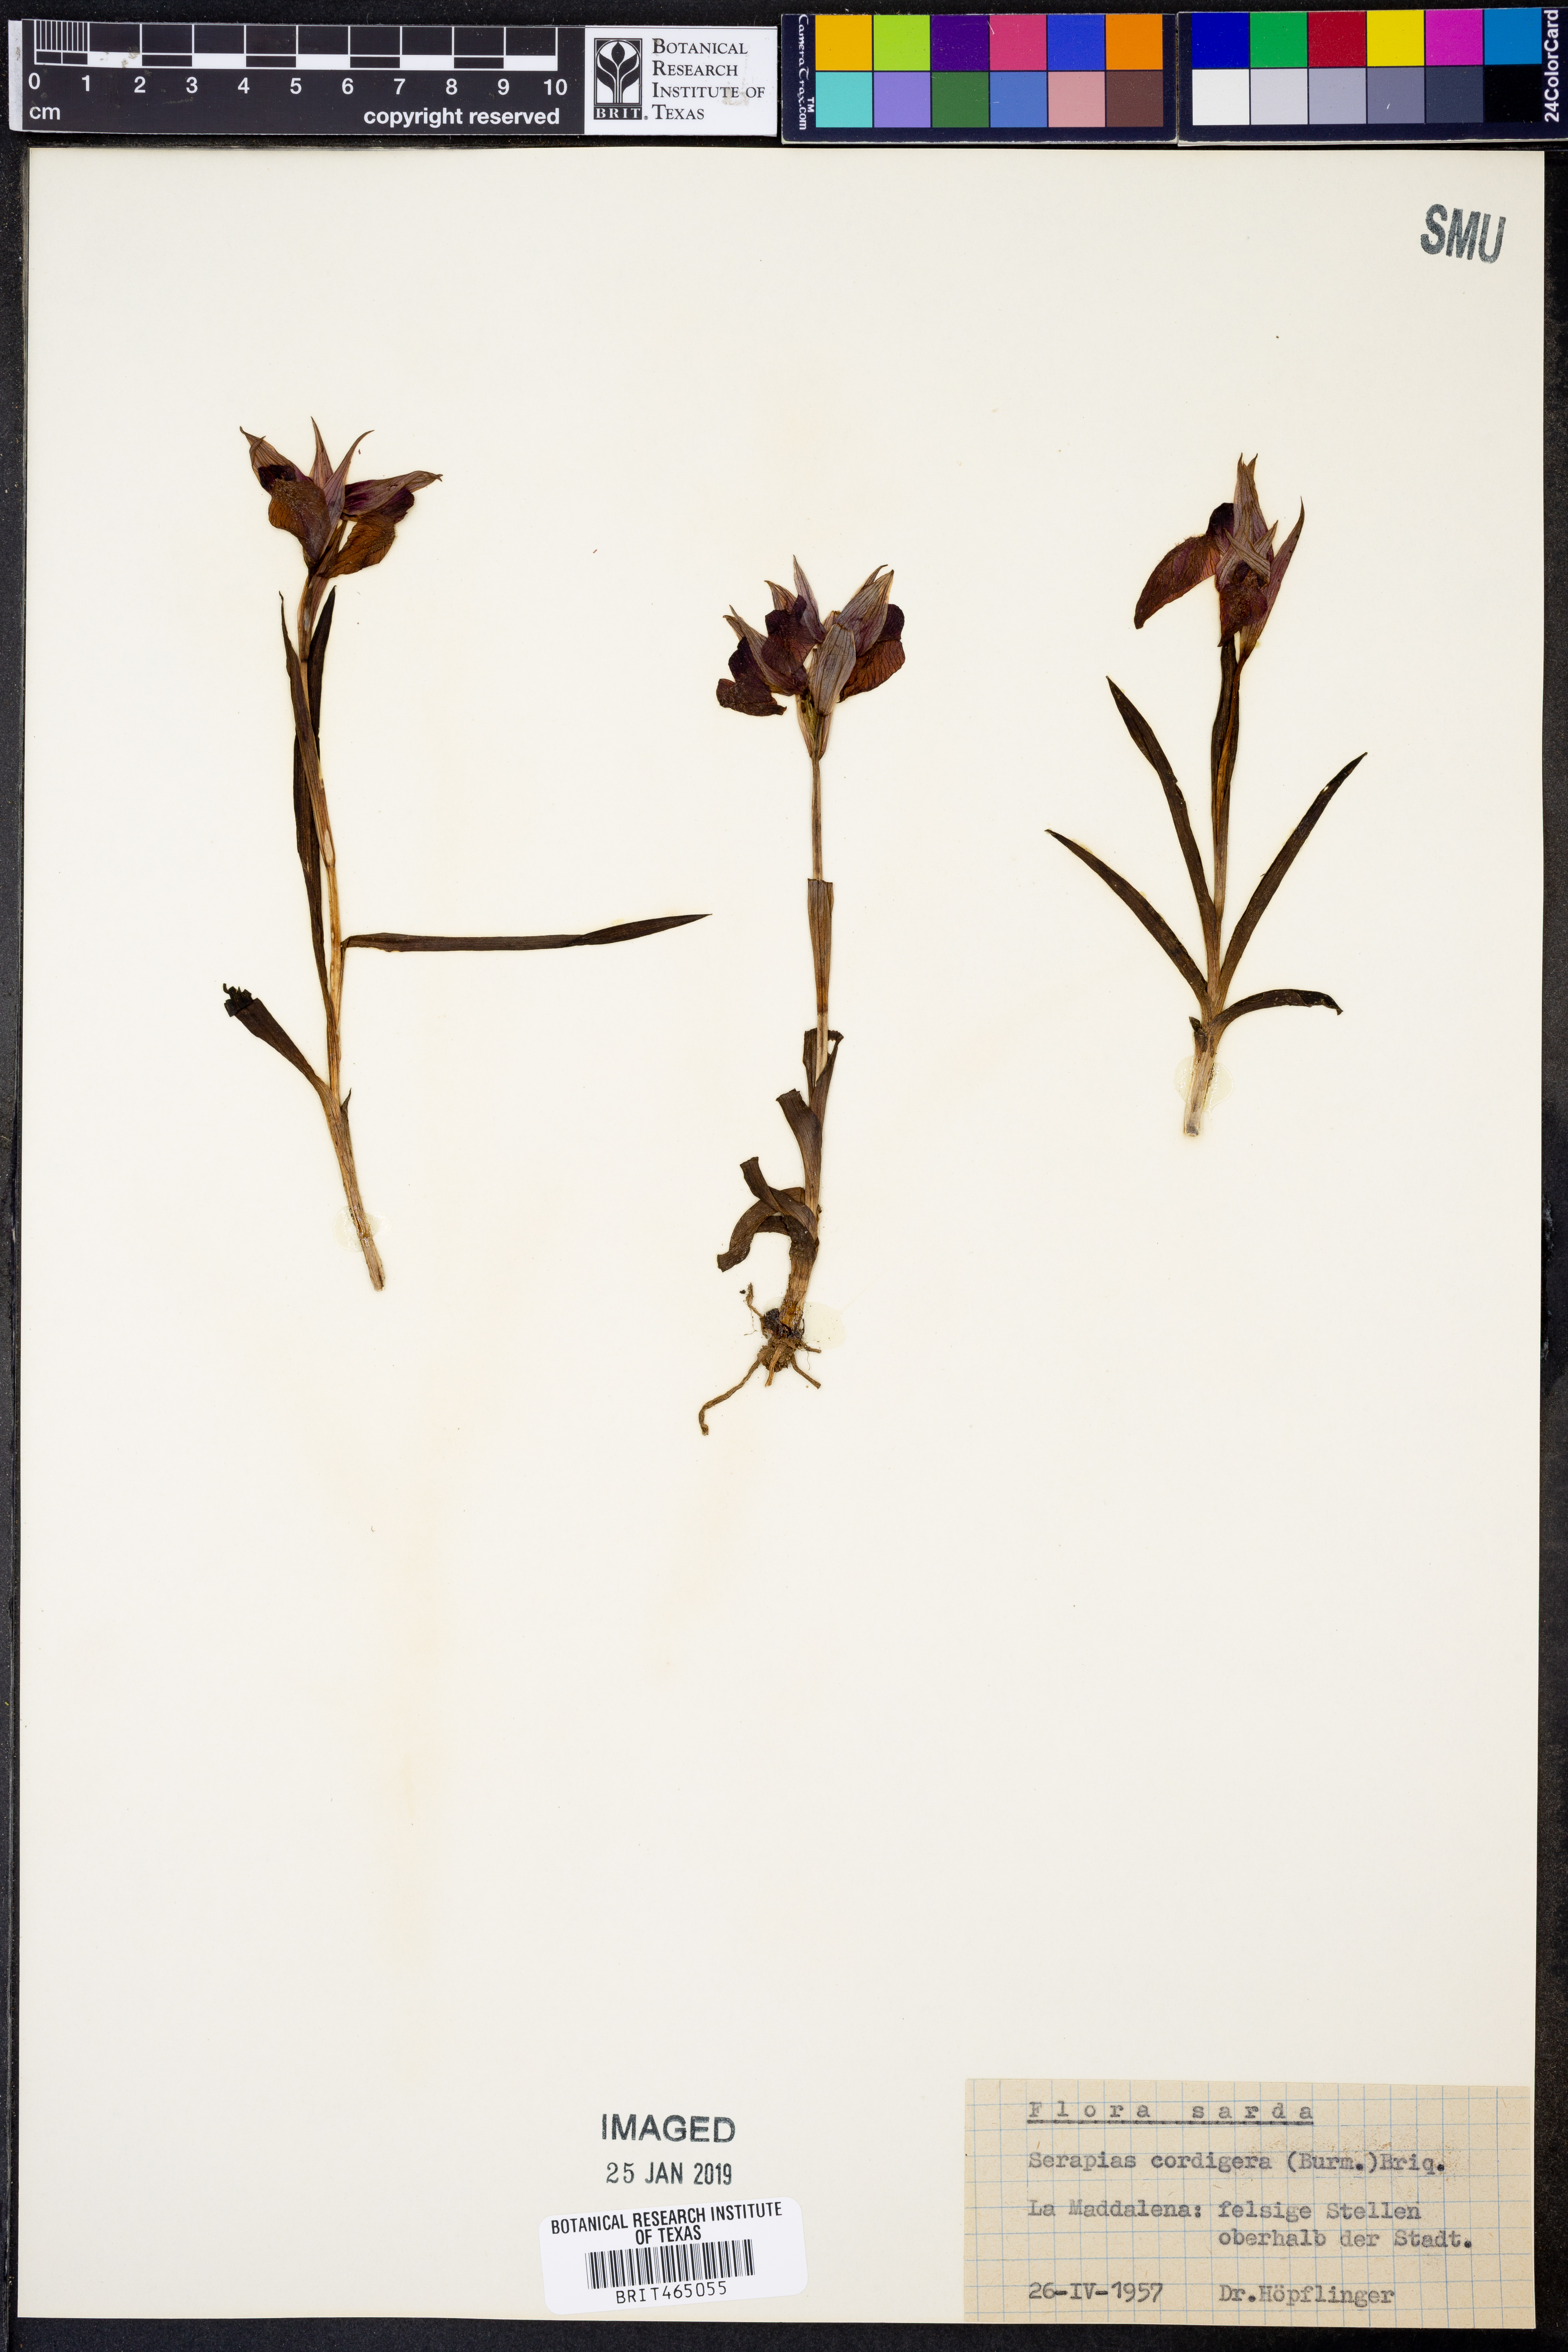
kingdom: Plantae
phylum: Tracheophyta
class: Liliopsida
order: Asparagales
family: Orchidaceae
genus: Serapias
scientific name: Serapias cordigera
